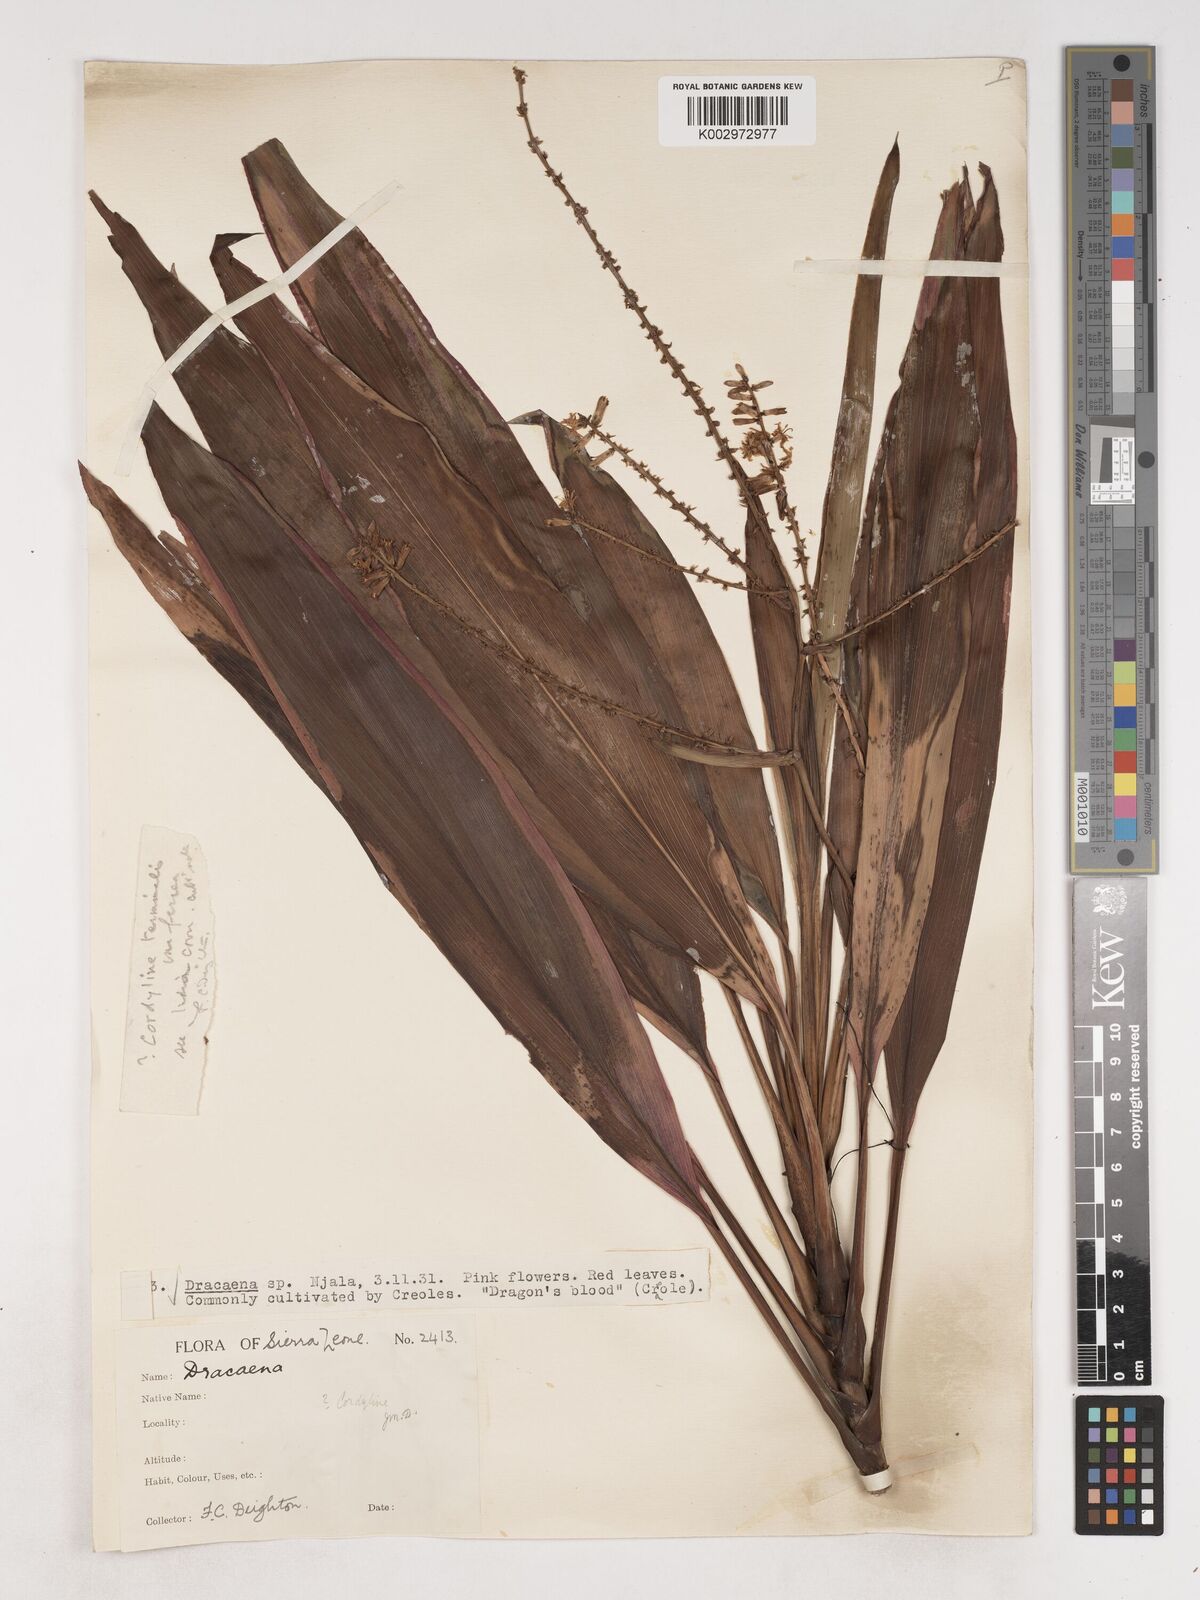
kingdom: Plantae
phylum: Tracheophyta
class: Liliopsida
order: Asparagales
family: Asparagaceae
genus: Cordyline
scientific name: Cordyline fruticosa
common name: Good-luck-plant
